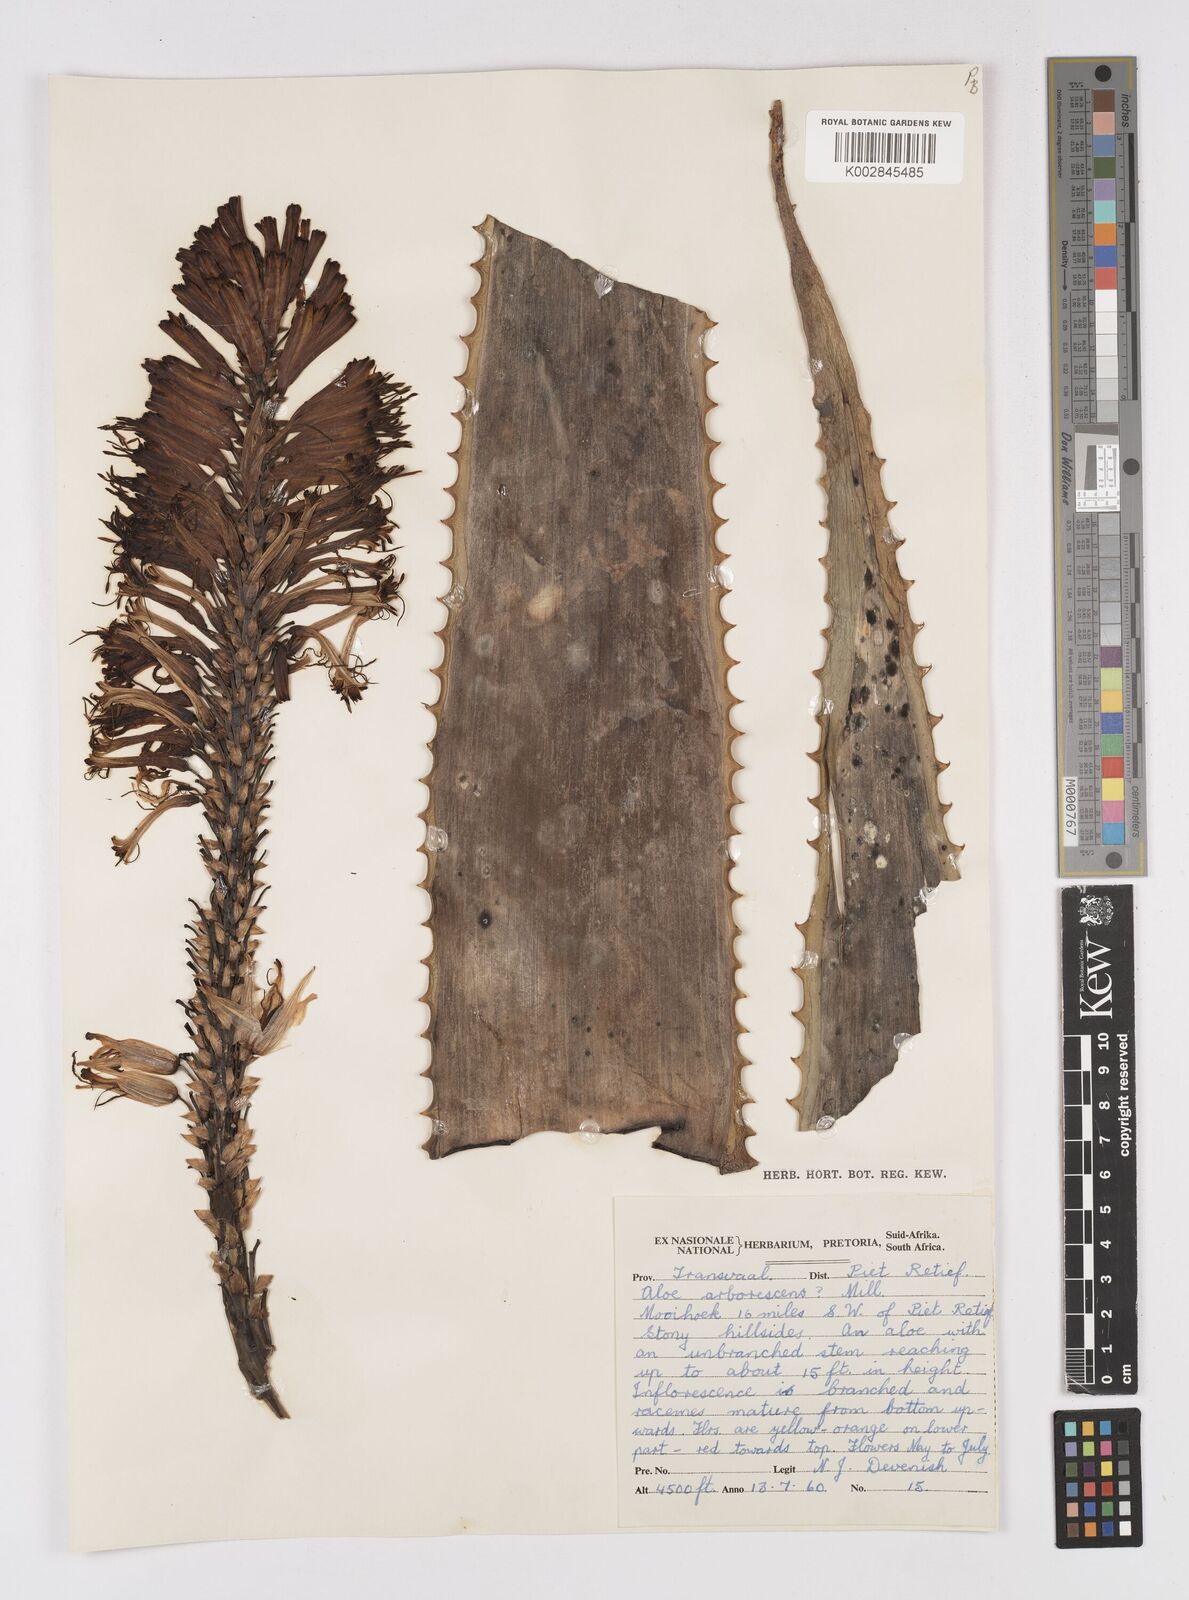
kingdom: Plantae
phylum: Tracheophyta
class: Liliopsida
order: Asparagales
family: Asphodelaceae
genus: Aloe
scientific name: Aloe arborescens
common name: Candelabra aloe
